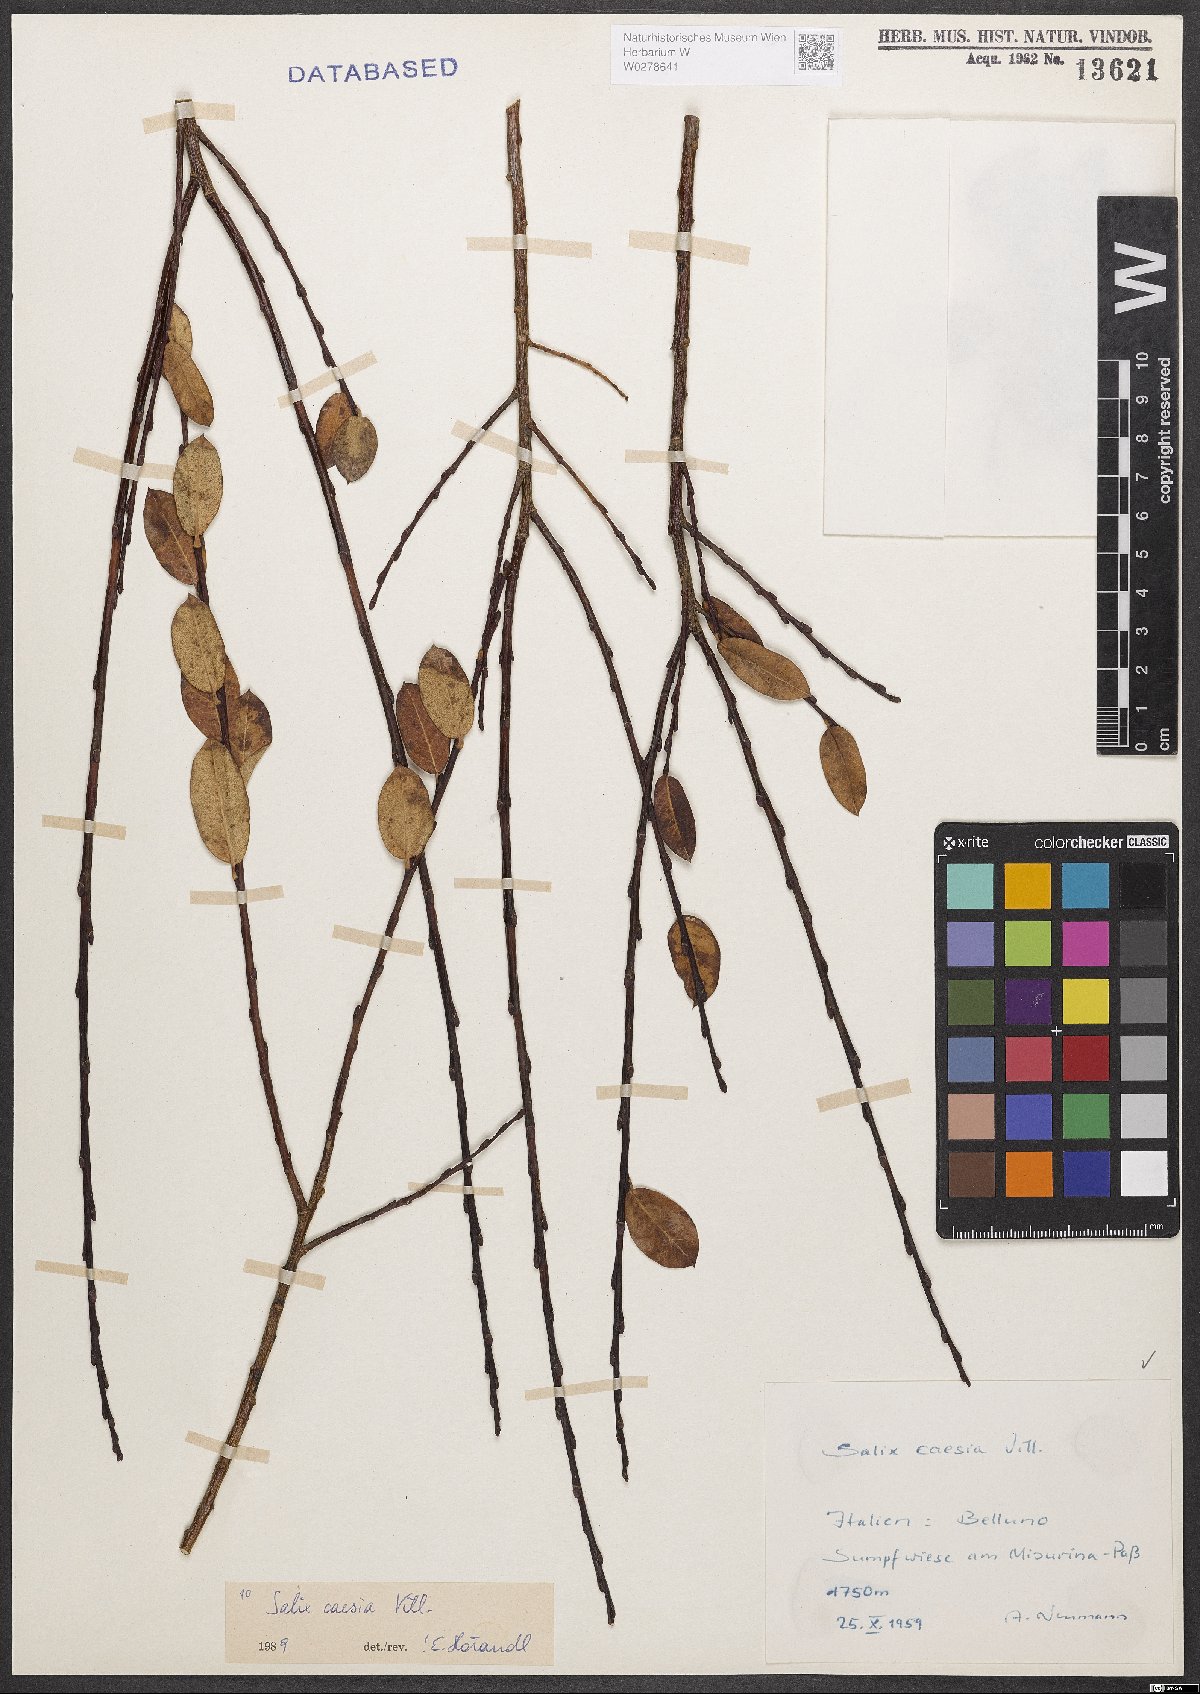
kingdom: Plantae
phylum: Tracheophyta
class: Magnoliopsida
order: Malpighiales
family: Salicaceae
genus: Salix
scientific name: Salix caesia
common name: Blue willow
